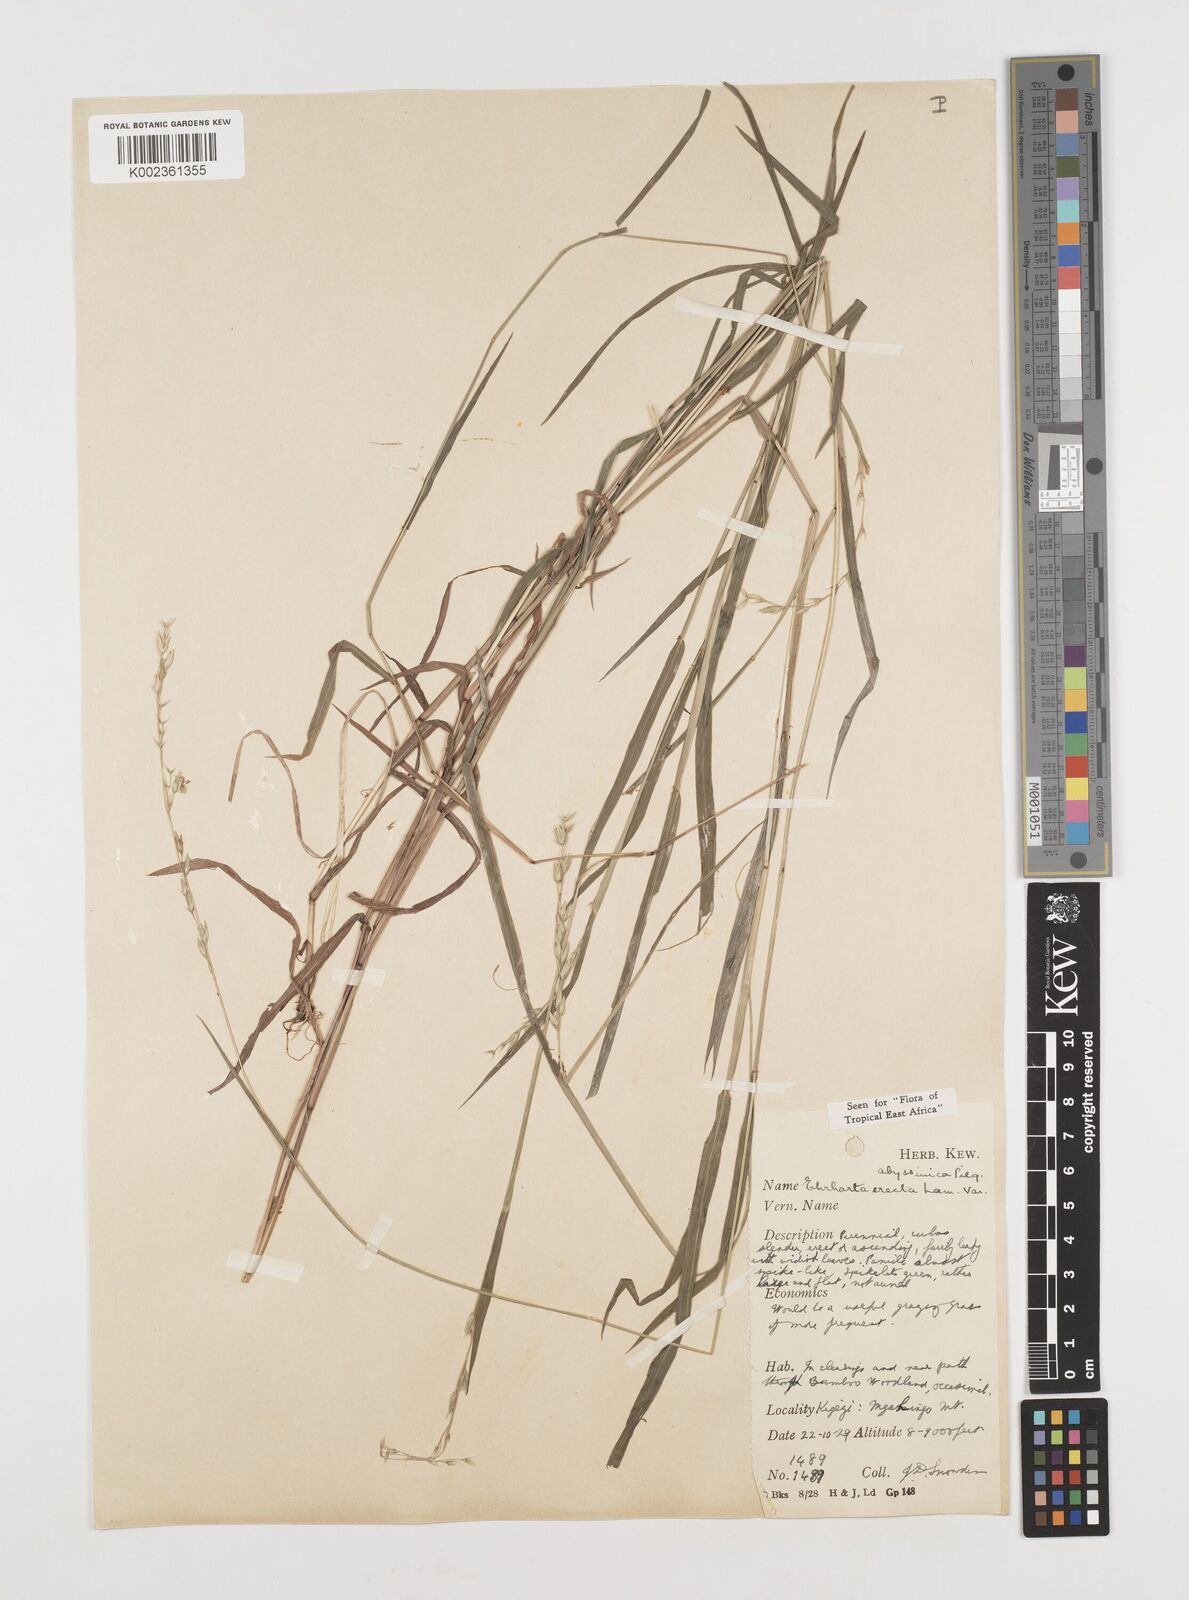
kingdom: Plantae
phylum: Tracheophyta
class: Liliopsida
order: Poales
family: Poaceae
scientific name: Poaceae
